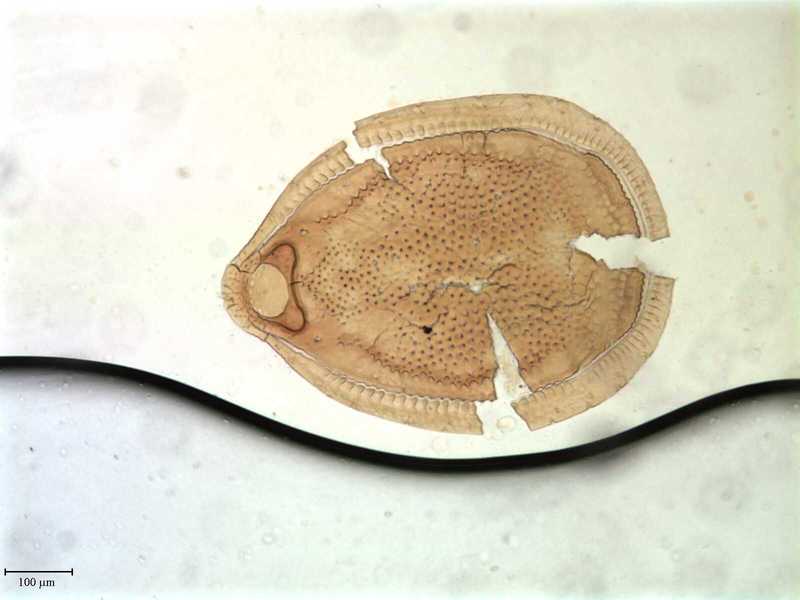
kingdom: Animalia
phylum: Arthropoda
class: Arachnida
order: Mesostigmata
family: Trigonuropodidae
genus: Trigonuropoda
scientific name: Trigonuropoda polyphemus
